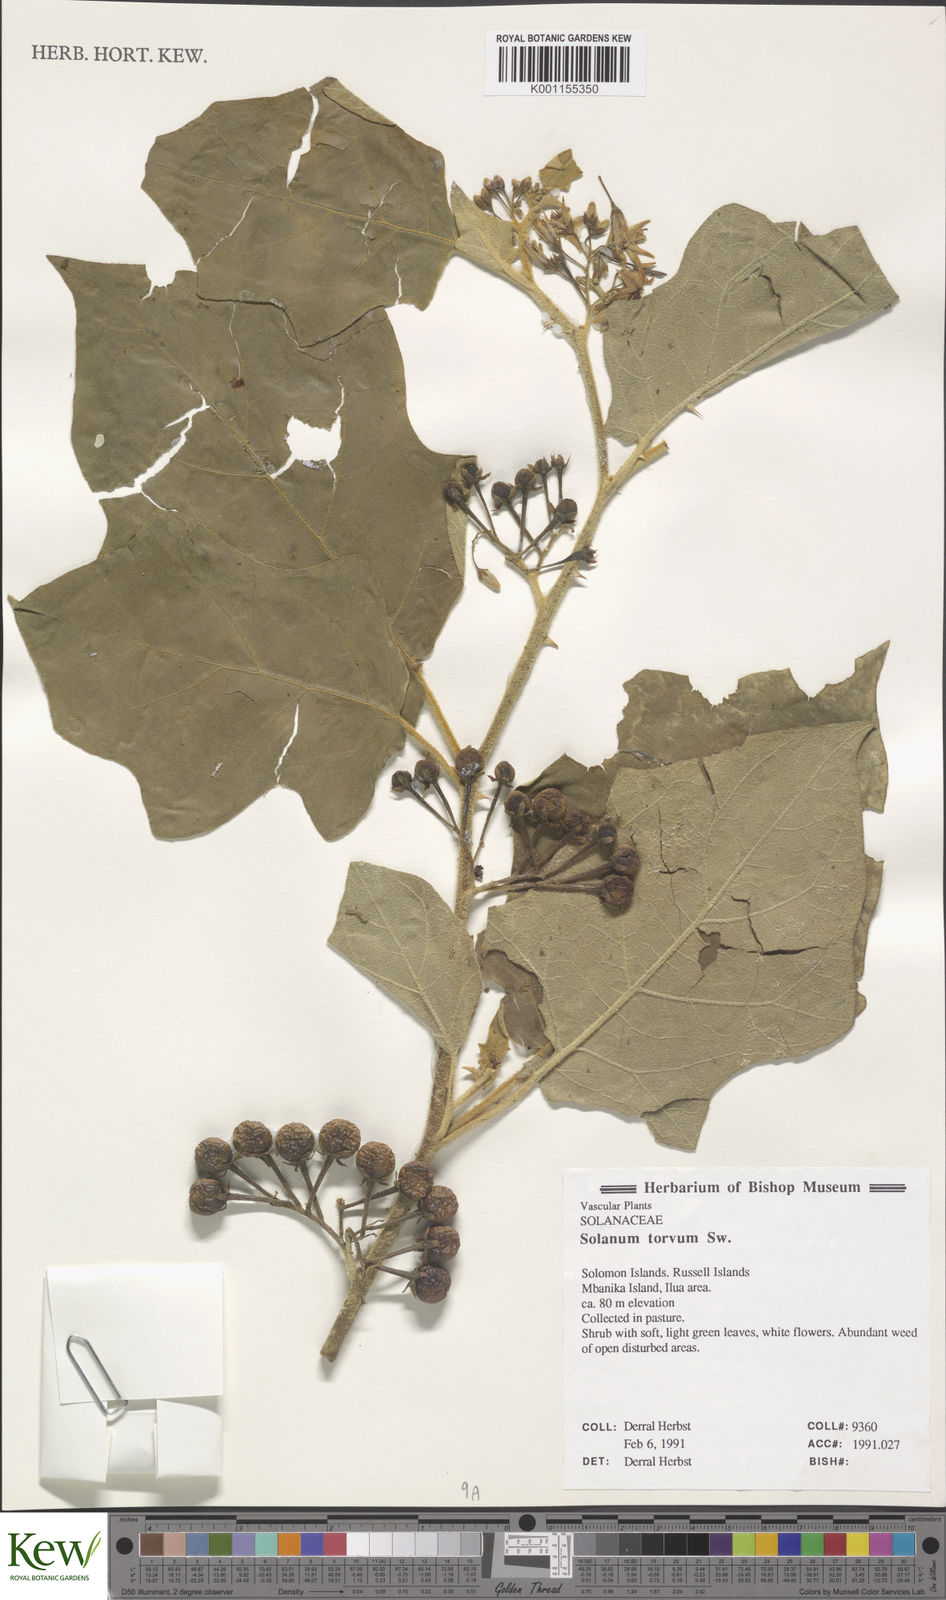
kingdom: Plantae
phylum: Tracheophyta
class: Magnoliopsida
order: Solanales
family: Solanaceae
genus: Solanum
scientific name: Solanum torvum
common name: Turkey berry
